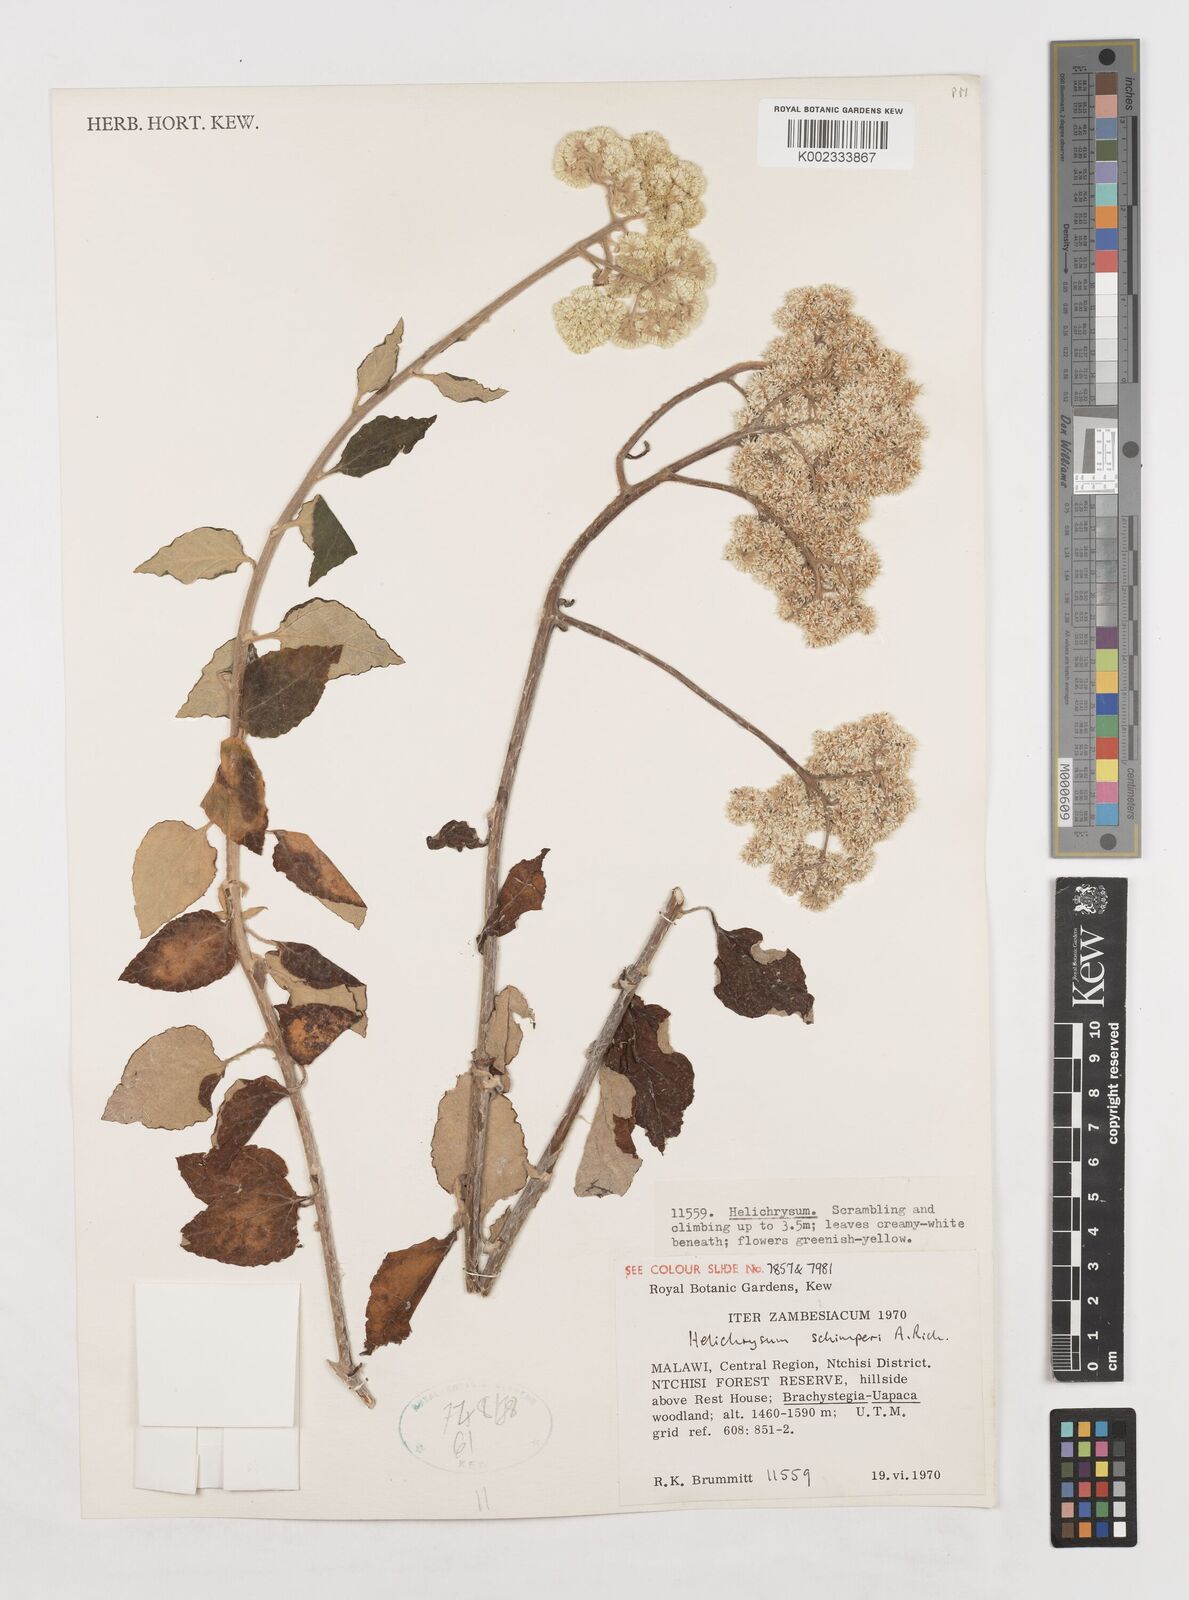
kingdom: Plantae
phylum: Tracheophyta
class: Magnoliopsida
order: Asterales
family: Asteraceae
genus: Helichrysum
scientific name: Helichrysum schimperi
